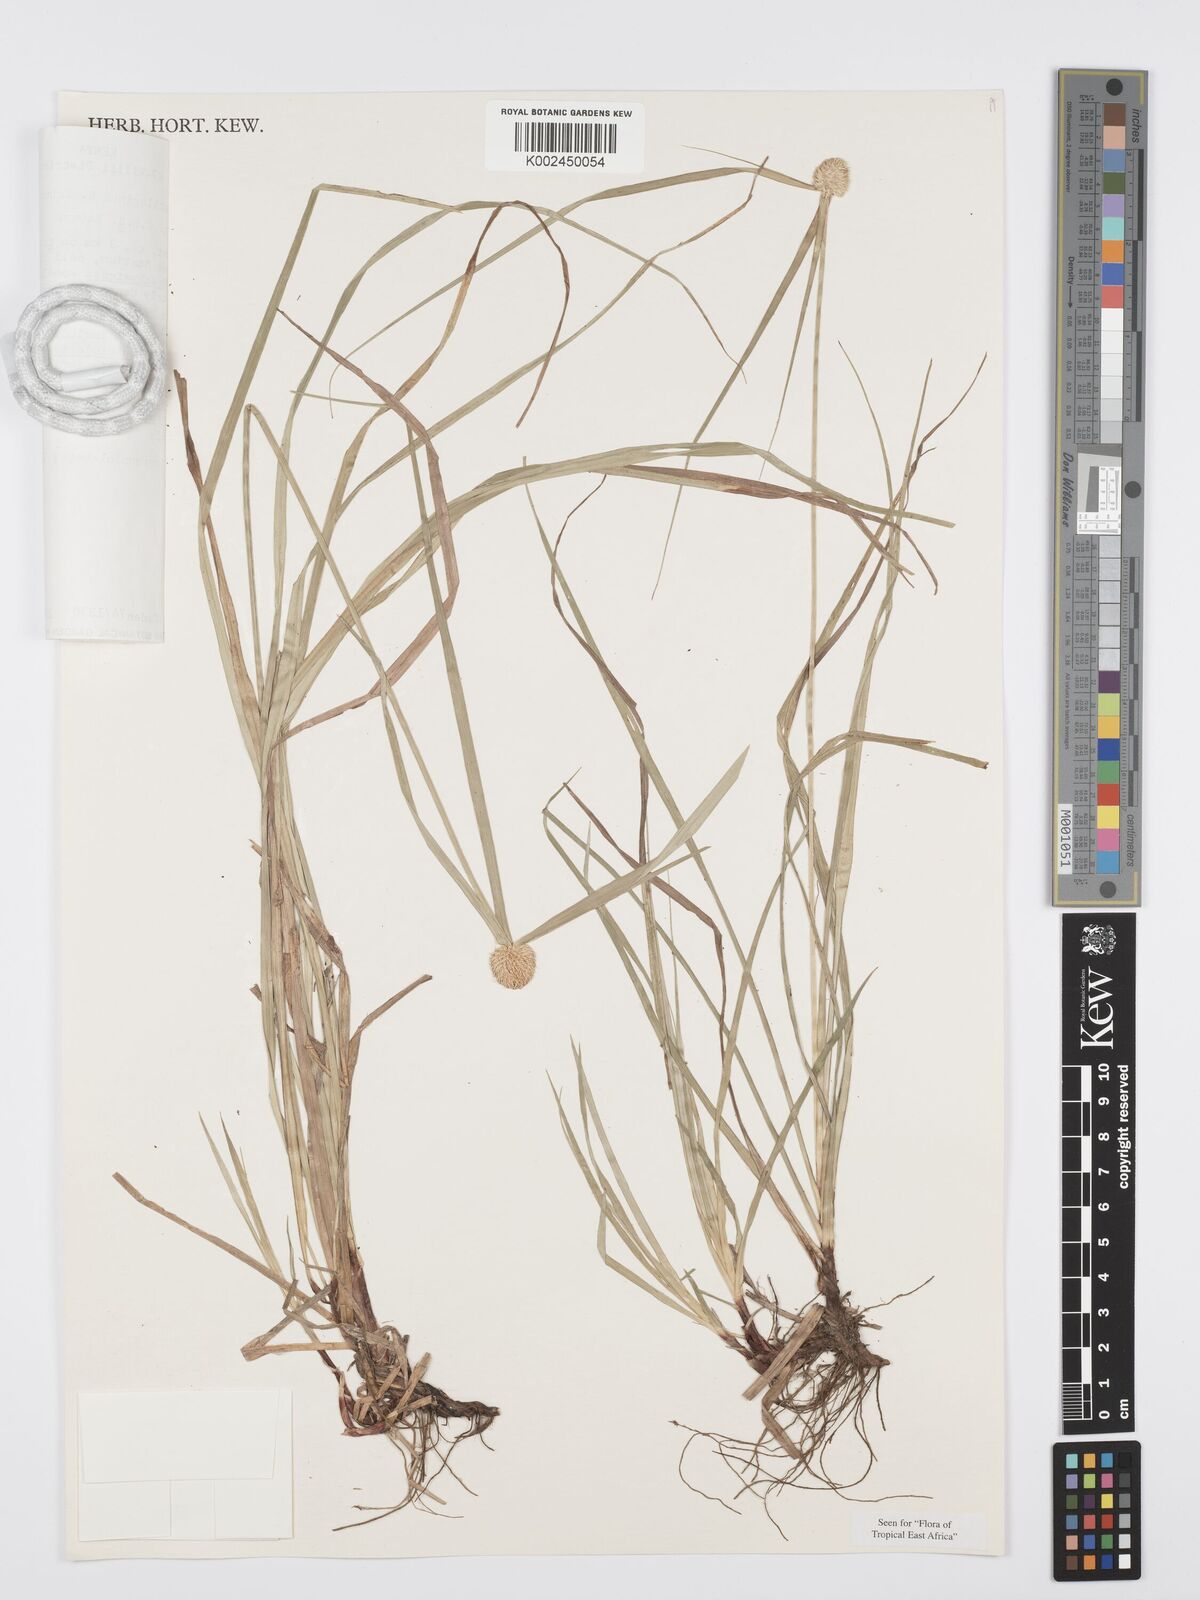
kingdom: Plantae
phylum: Tracheophyta
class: Liliopsida
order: Poales
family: Cyperaceae
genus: Cyperus
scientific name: Cyperus cartilagineus
